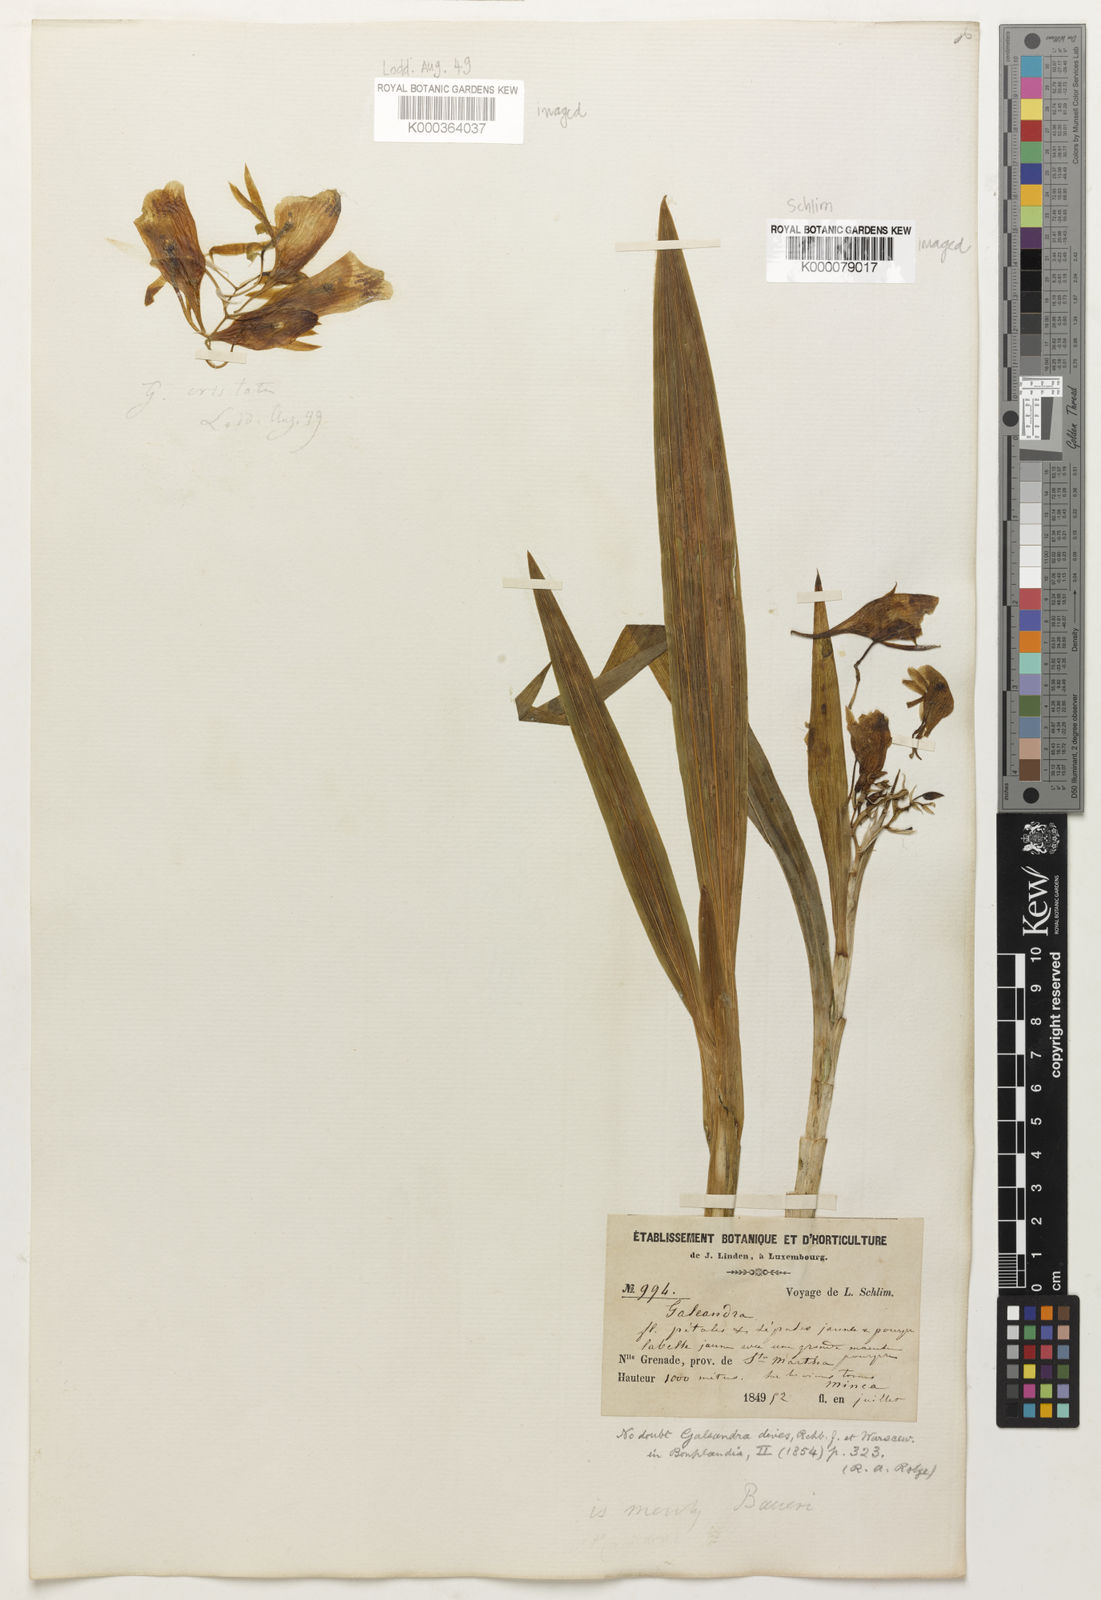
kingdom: Plantae
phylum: Tracheophyta
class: Liliopsida
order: Asparagales
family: Orchidaceae
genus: Galeandra
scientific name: Galeandra baueri
